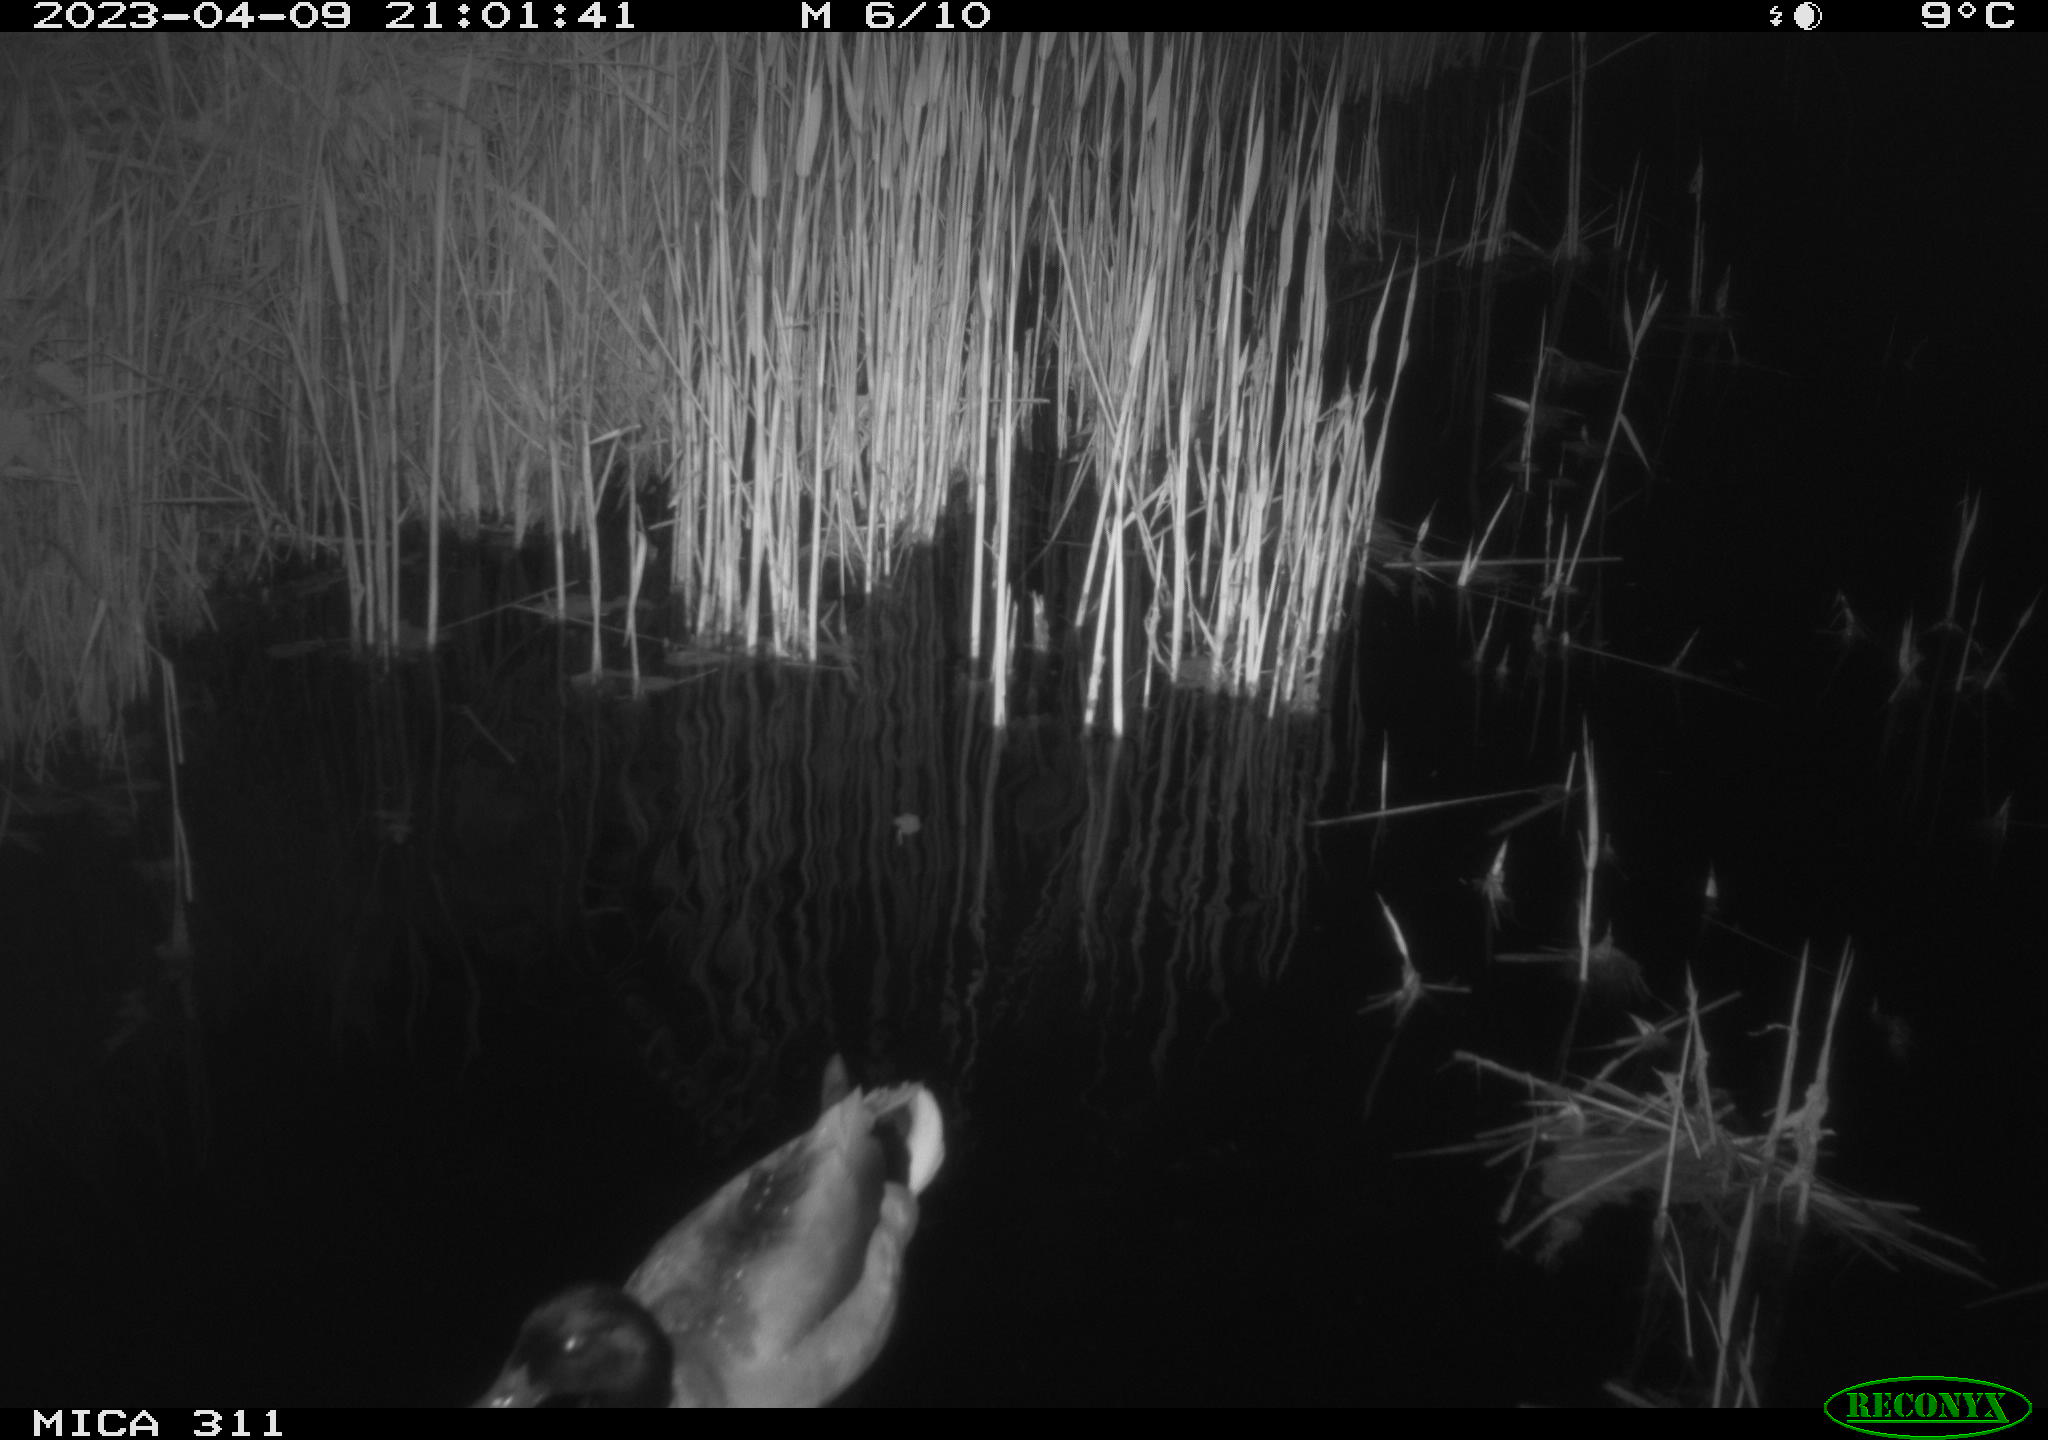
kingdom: Animalia
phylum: Chordata
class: Aves
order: Anseriformes
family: Anatidae
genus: Anas
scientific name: Anas
